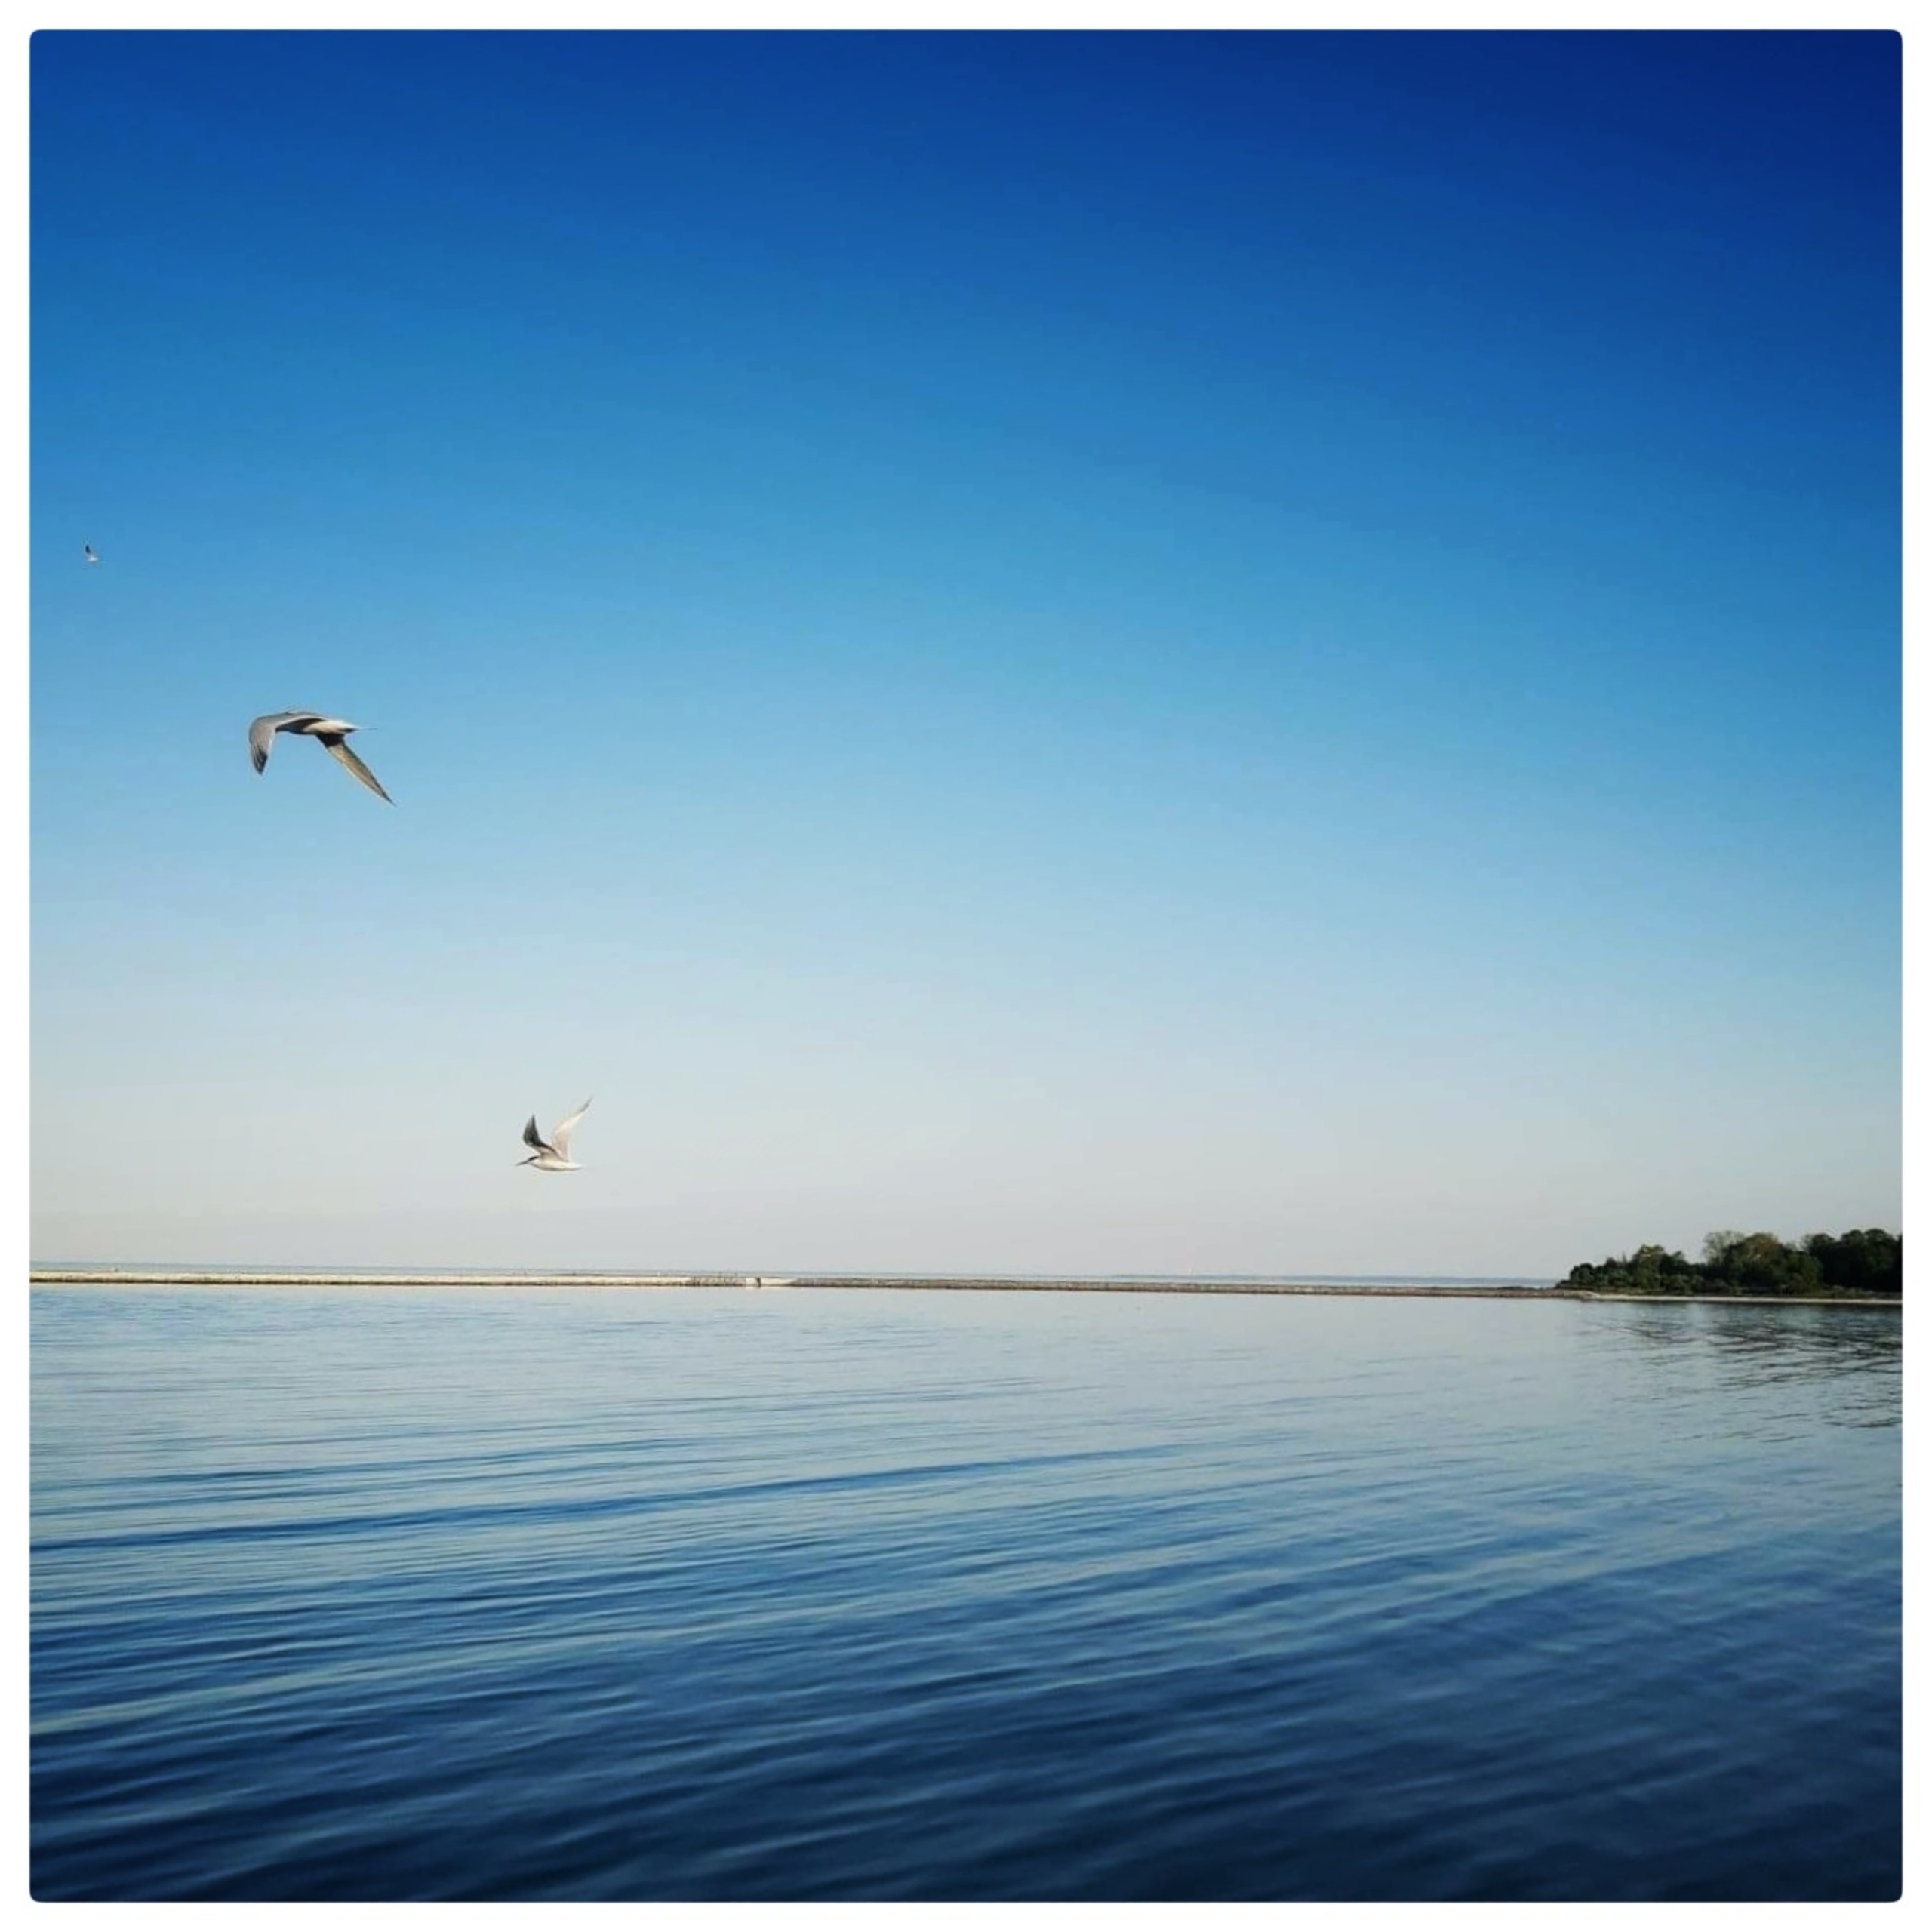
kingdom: Animalia
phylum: Chordata
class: Aves
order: Charadriiformes
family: Laridae
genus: Thalasseus
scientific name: Thalasseus sandvicensis
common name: Splitterne
